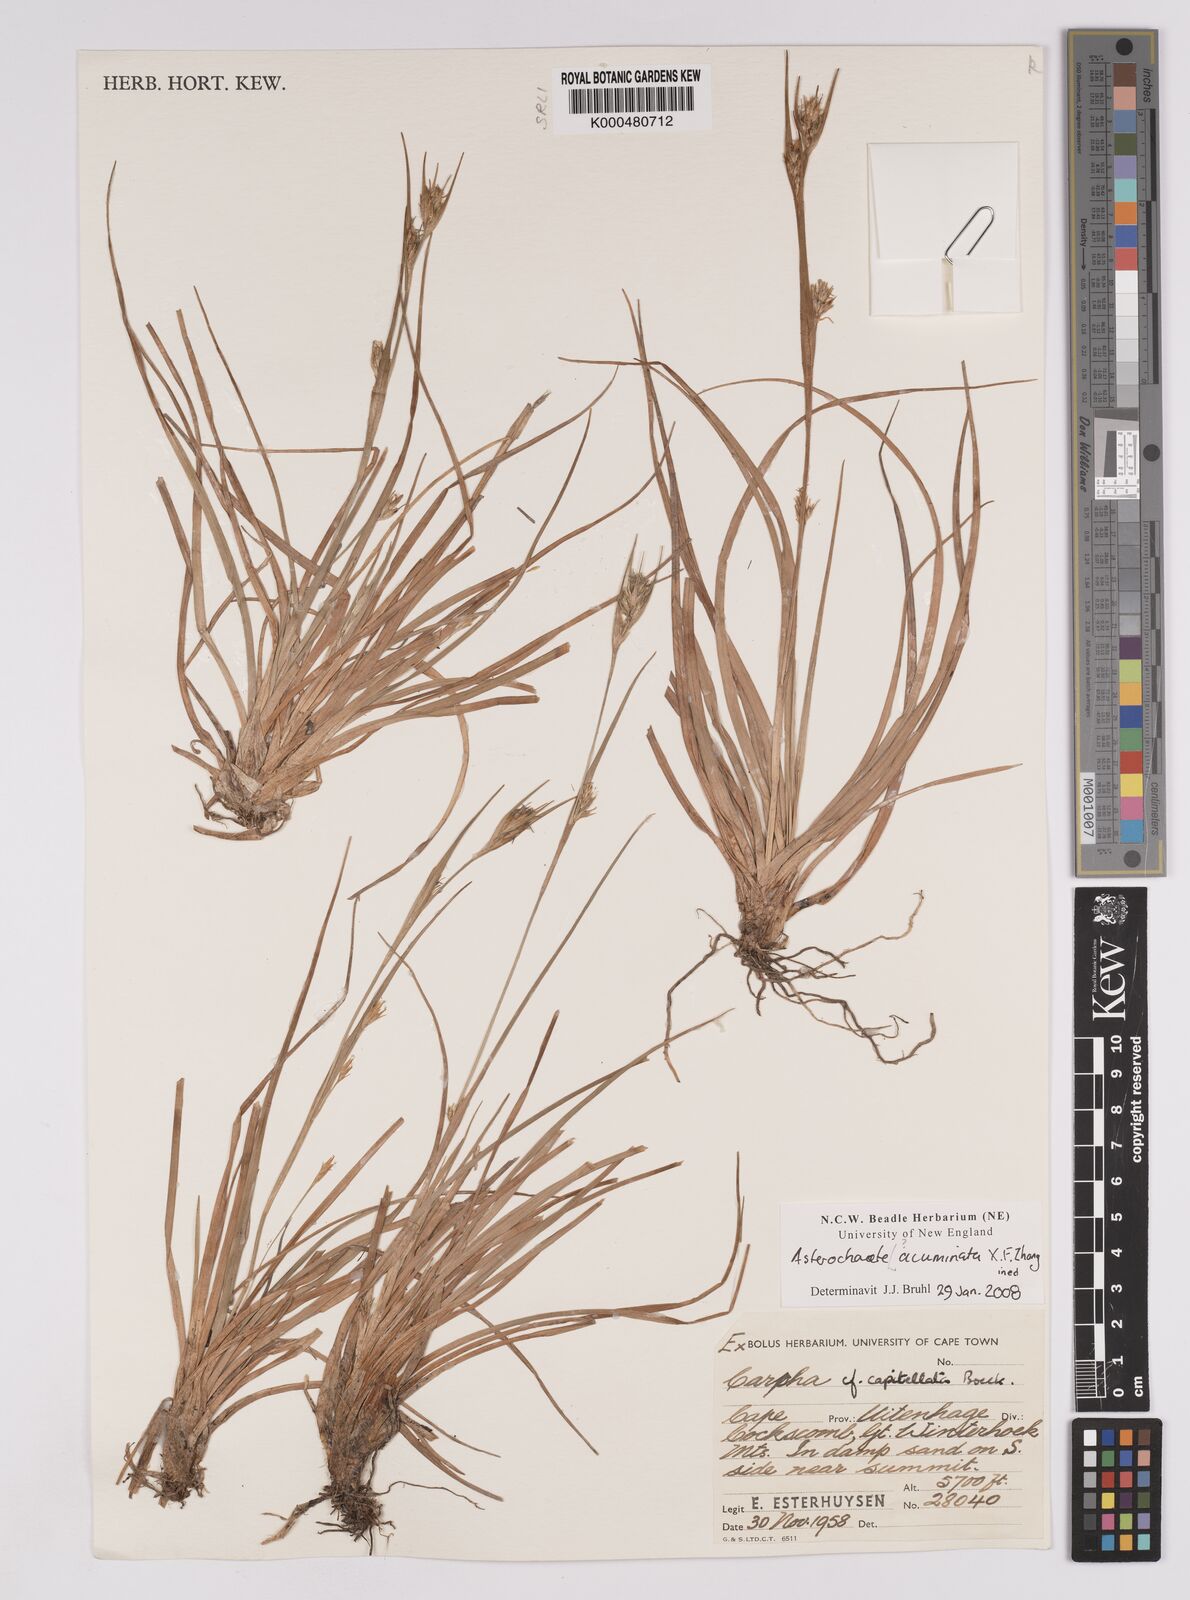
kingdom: Plantae
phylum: Tracheophyta
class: Liliopsida
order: Poales
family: Cyperaceae
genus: Carpha
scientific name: Carpha capitellata
